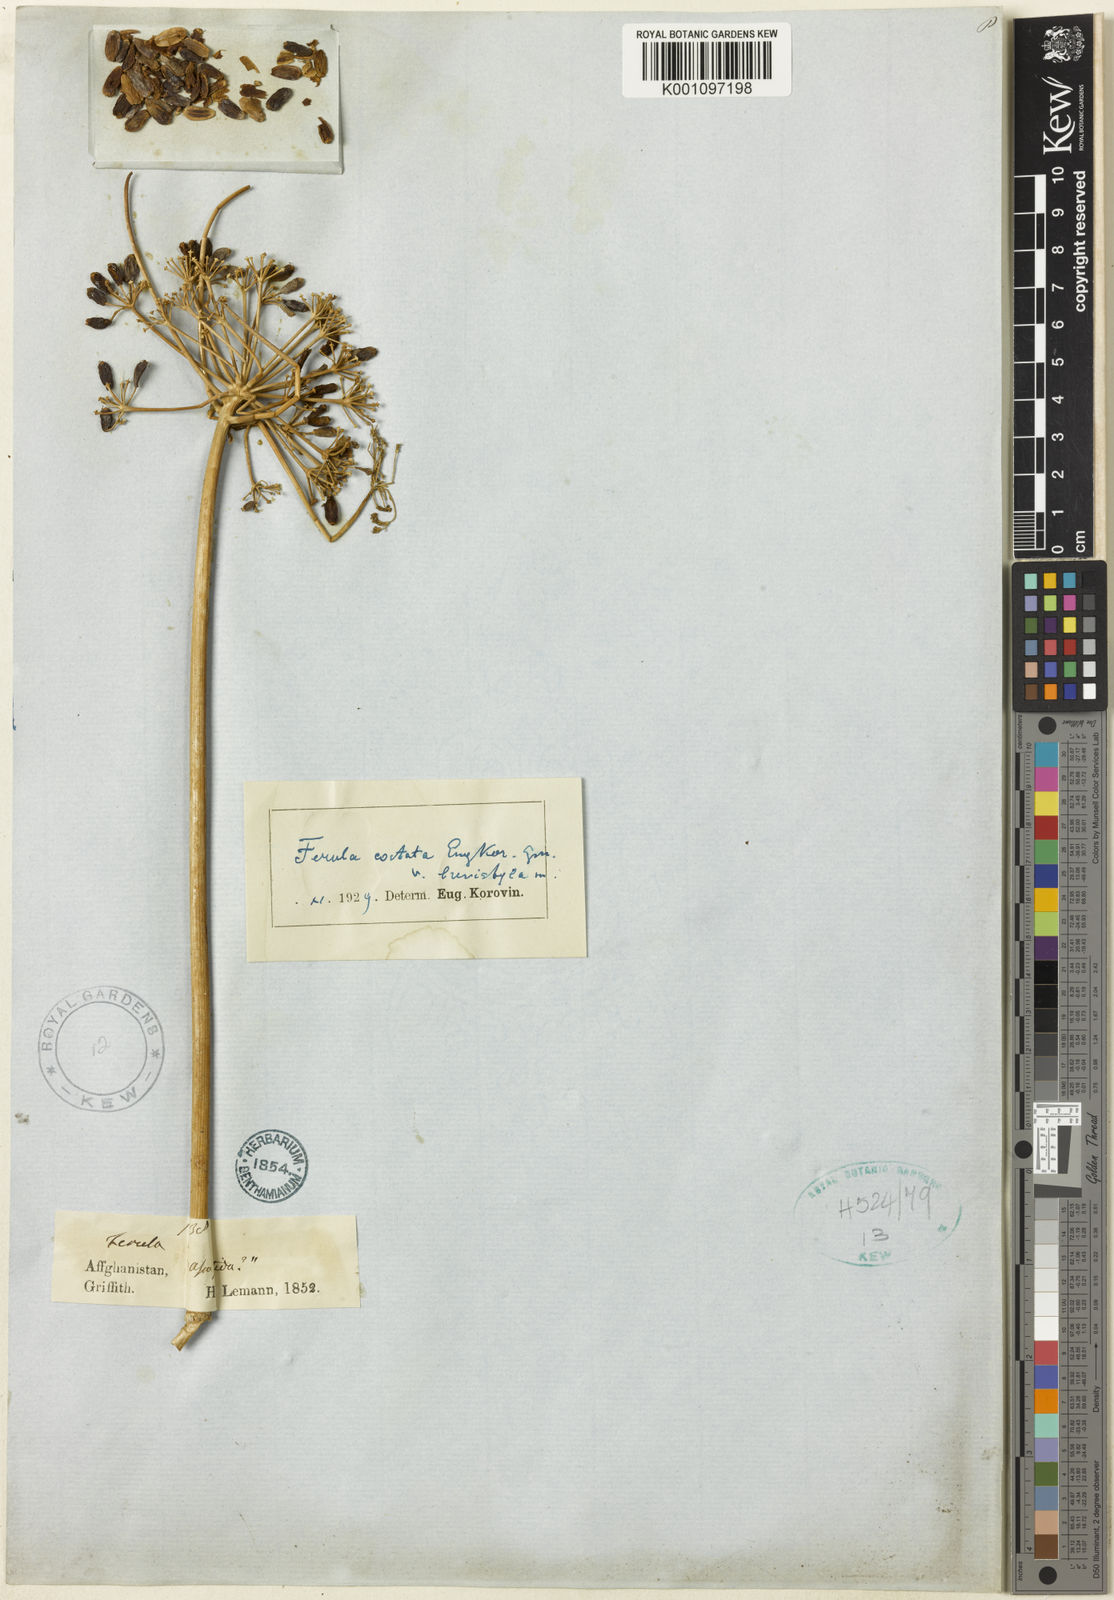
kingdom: Plantae
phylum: Tracheophyta
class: Magnoliopsida
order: Apiales
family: Apiaceae
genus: Ferula
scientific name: Ferula costata
